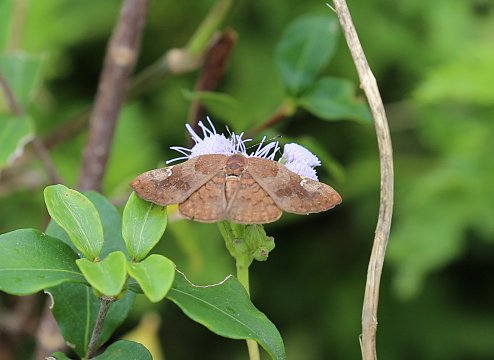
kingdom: Animalia
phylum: Arthropoda
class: Insecta
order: Lepidoptera
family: Lycaenidae
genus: Emesis
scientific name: Emesis emesia
